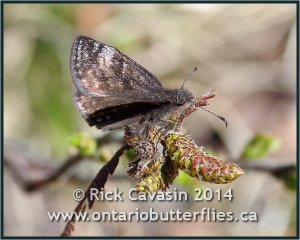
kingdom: Animalia
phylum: Arthropoda
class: Insecta
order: Lepidoptera
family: Hesperiidae
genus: Erynnis
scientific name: Erynnis icelus
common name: Dreamy Duskywing
